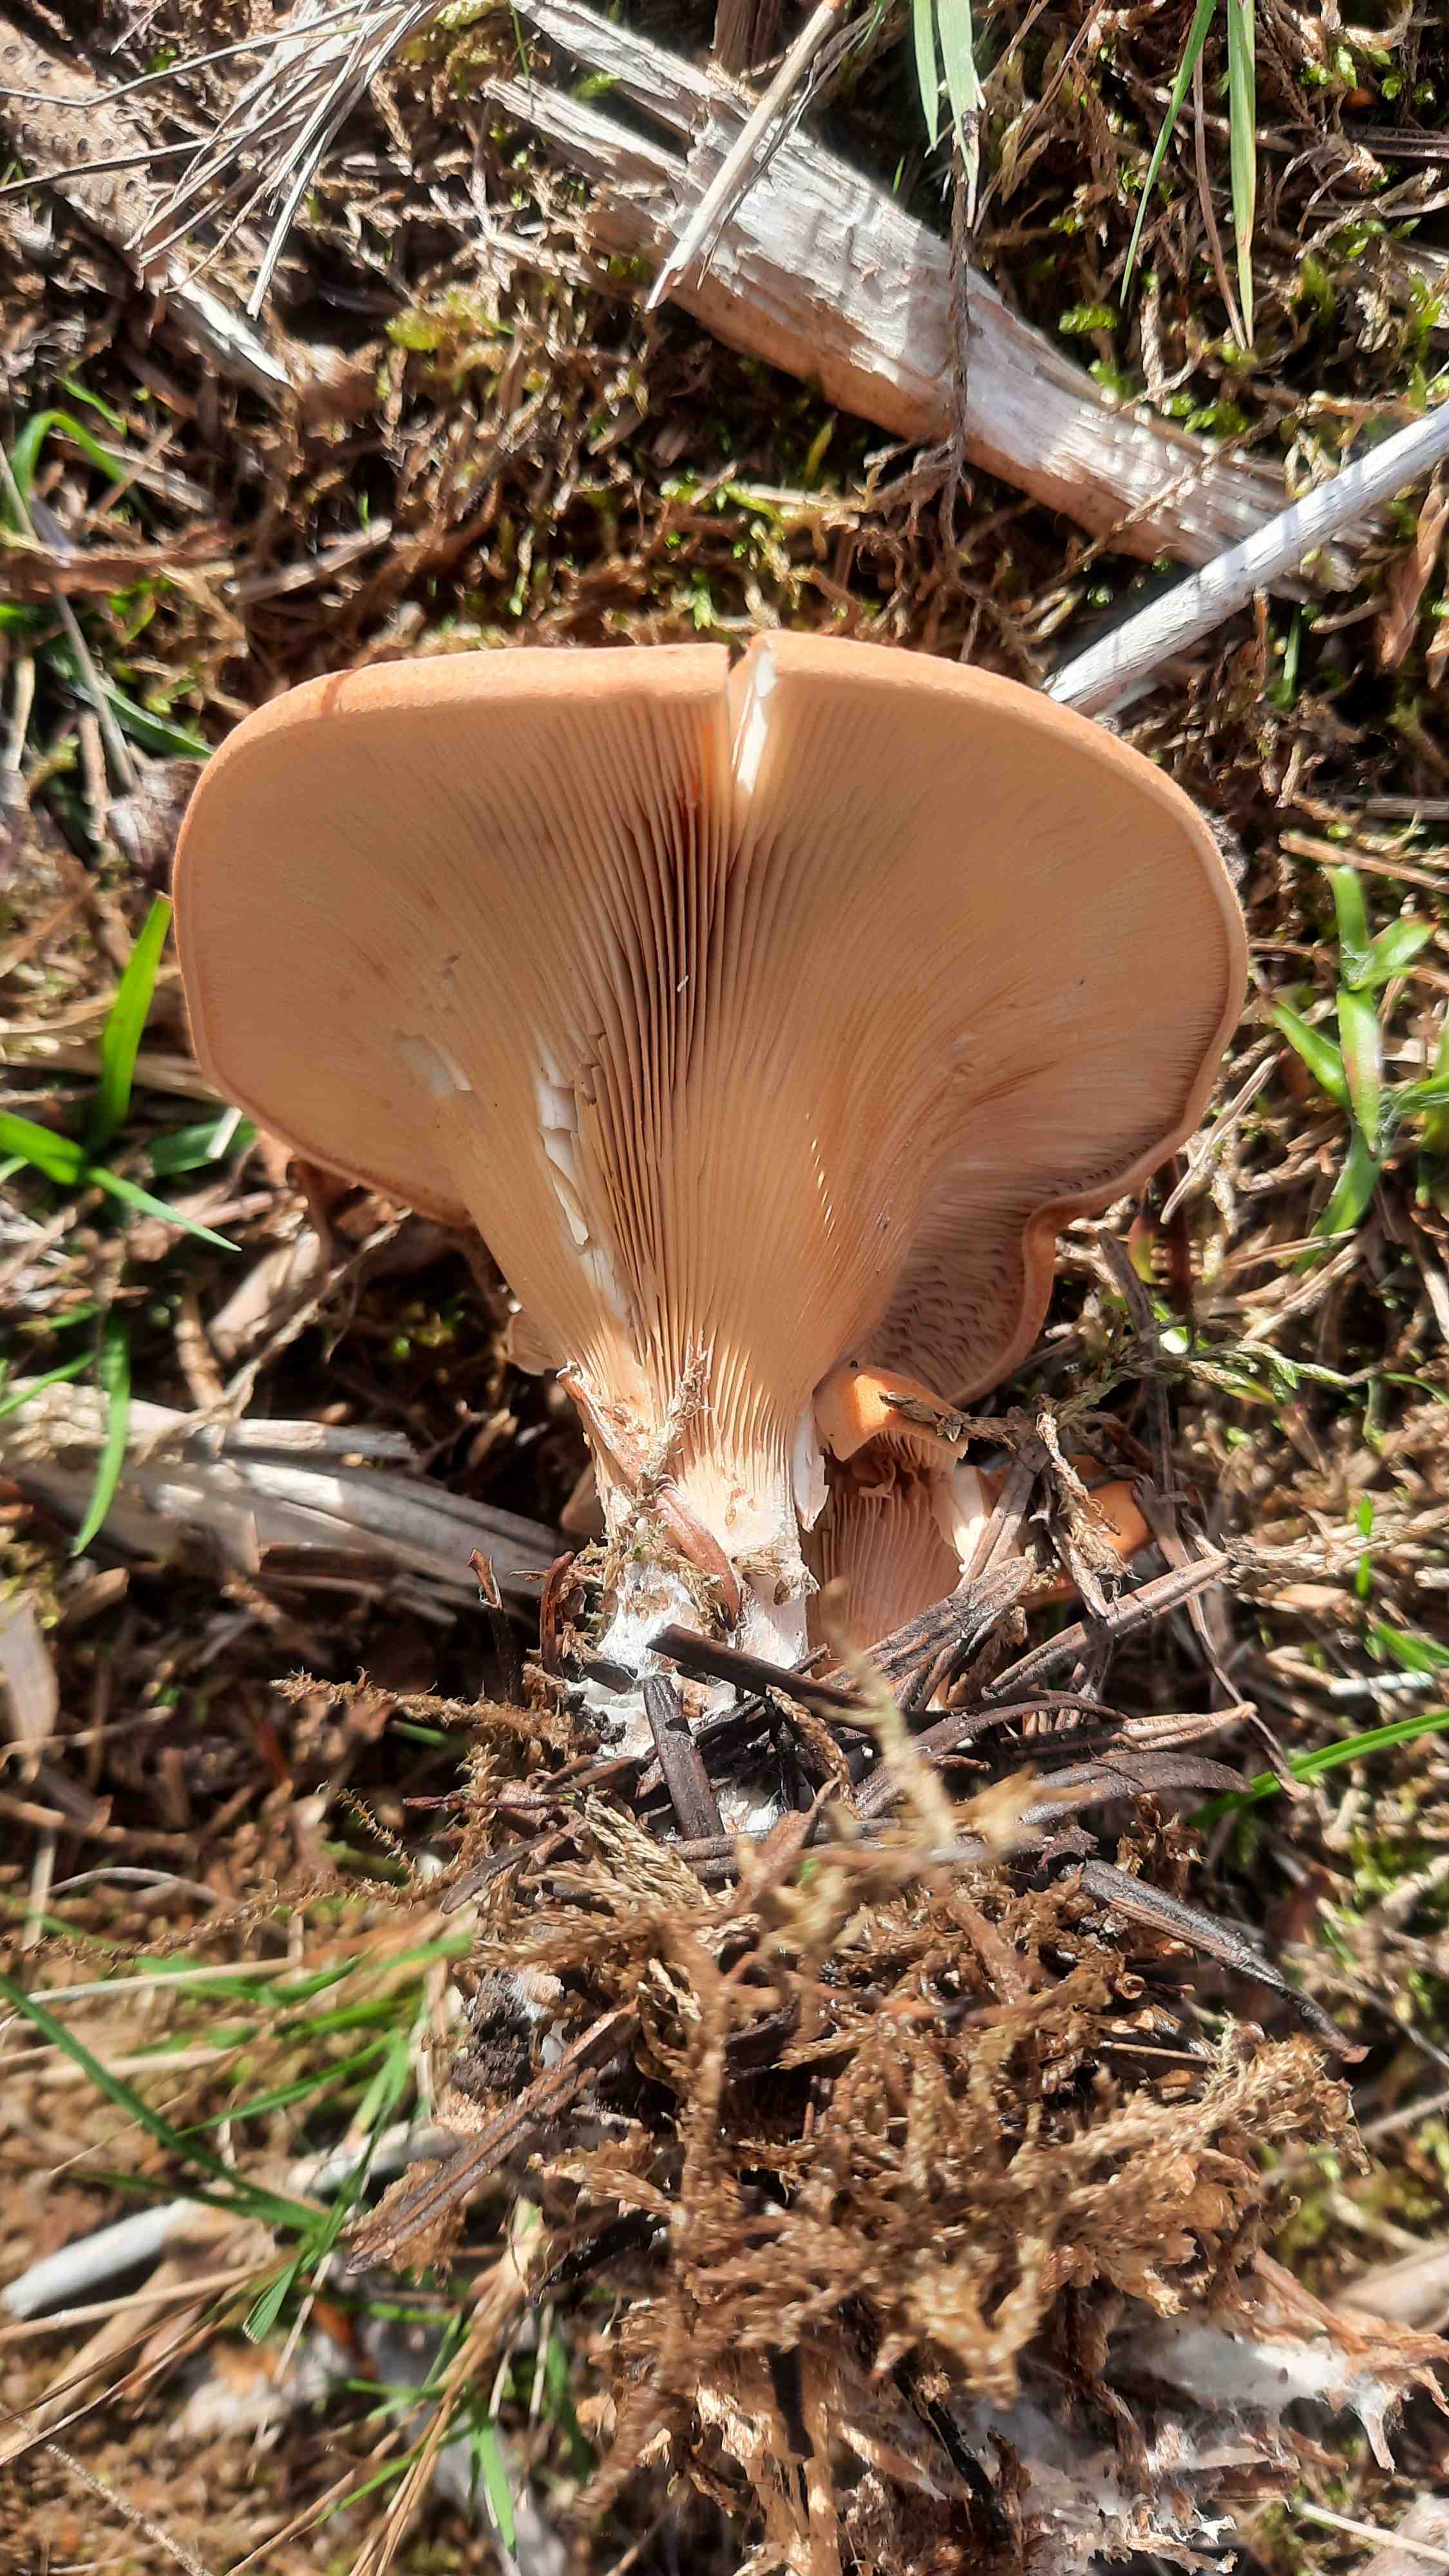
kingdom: Fungi
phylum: Basidiomycota
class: Agaricomycetes
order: Agaricales
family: Tricholomataceae
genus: Paralepista
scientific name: Paralepista flaccida
